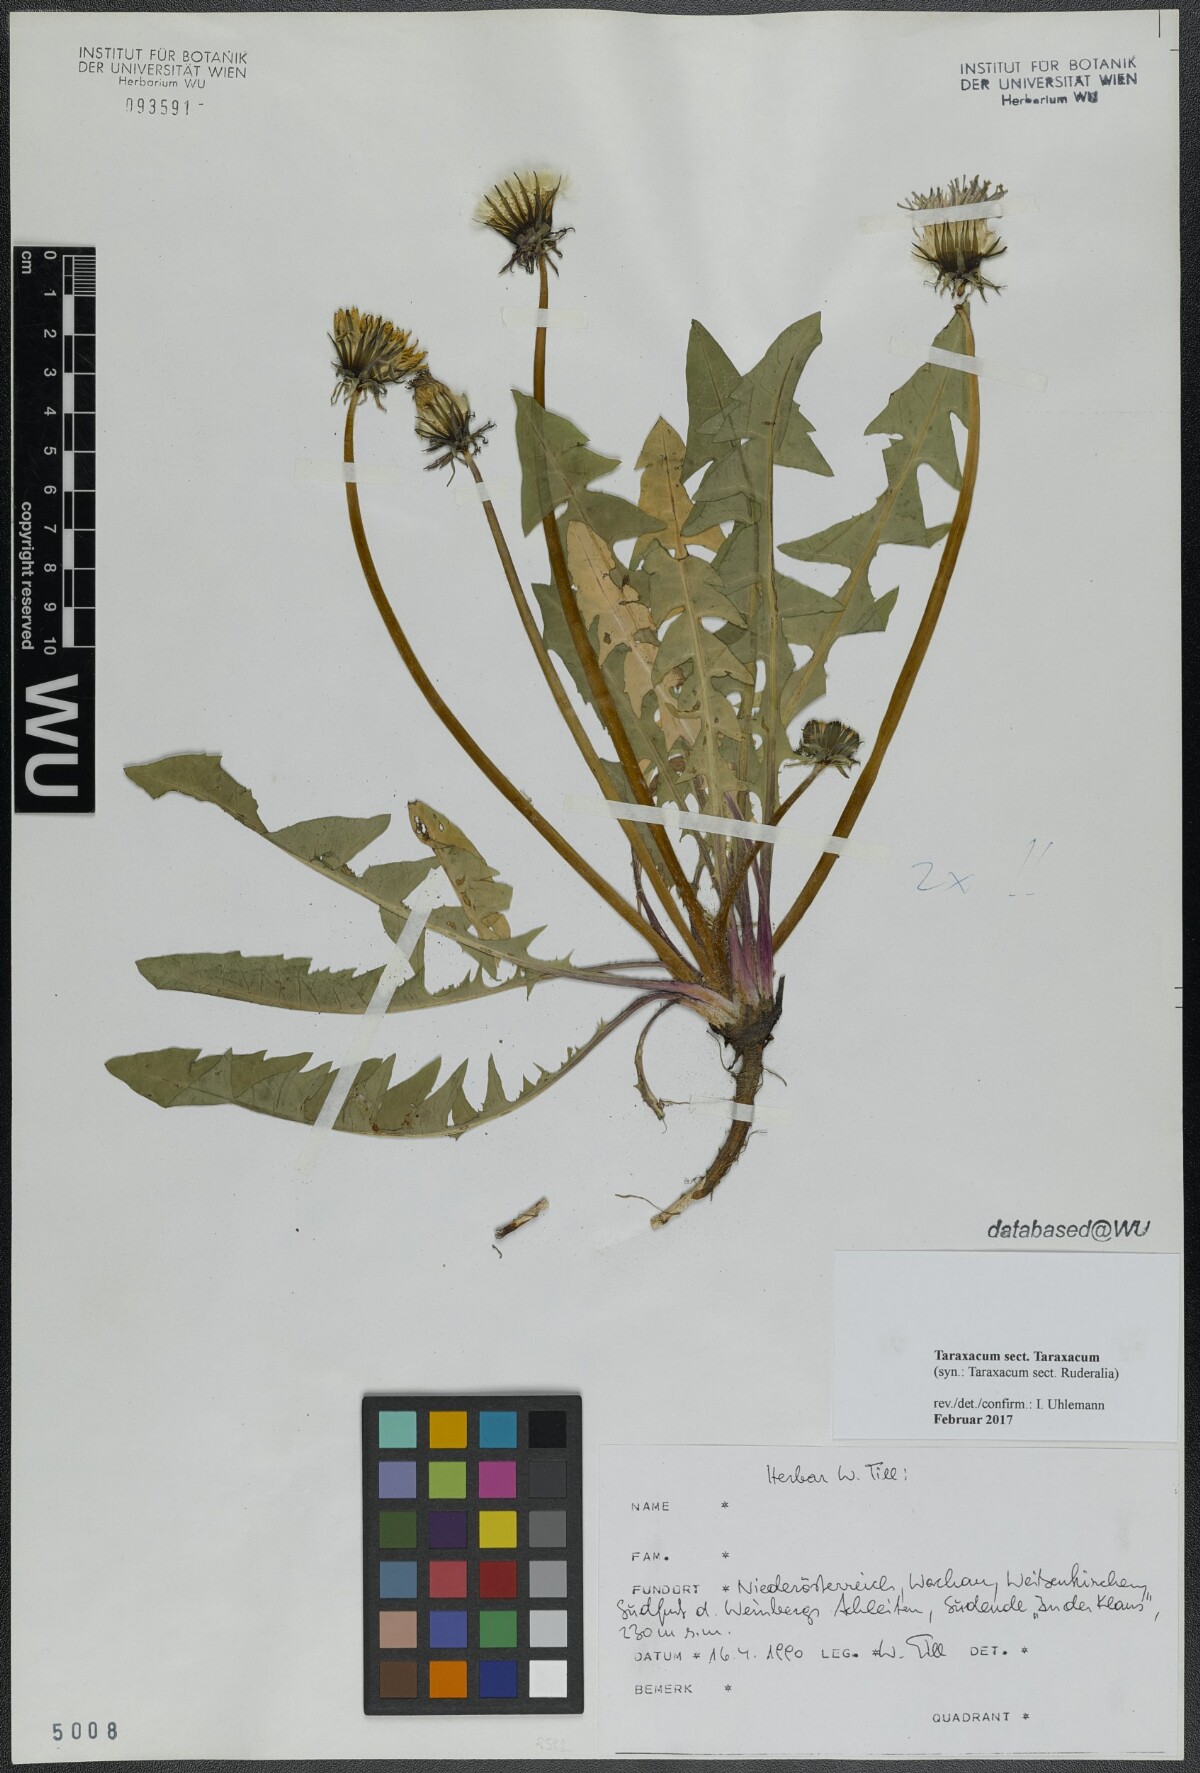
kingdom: Plantae
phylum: Tracheophyta
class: Magnoliopsida
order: Asterales
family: Asteraceae
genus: Taraxacum
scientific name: Taraxacum
